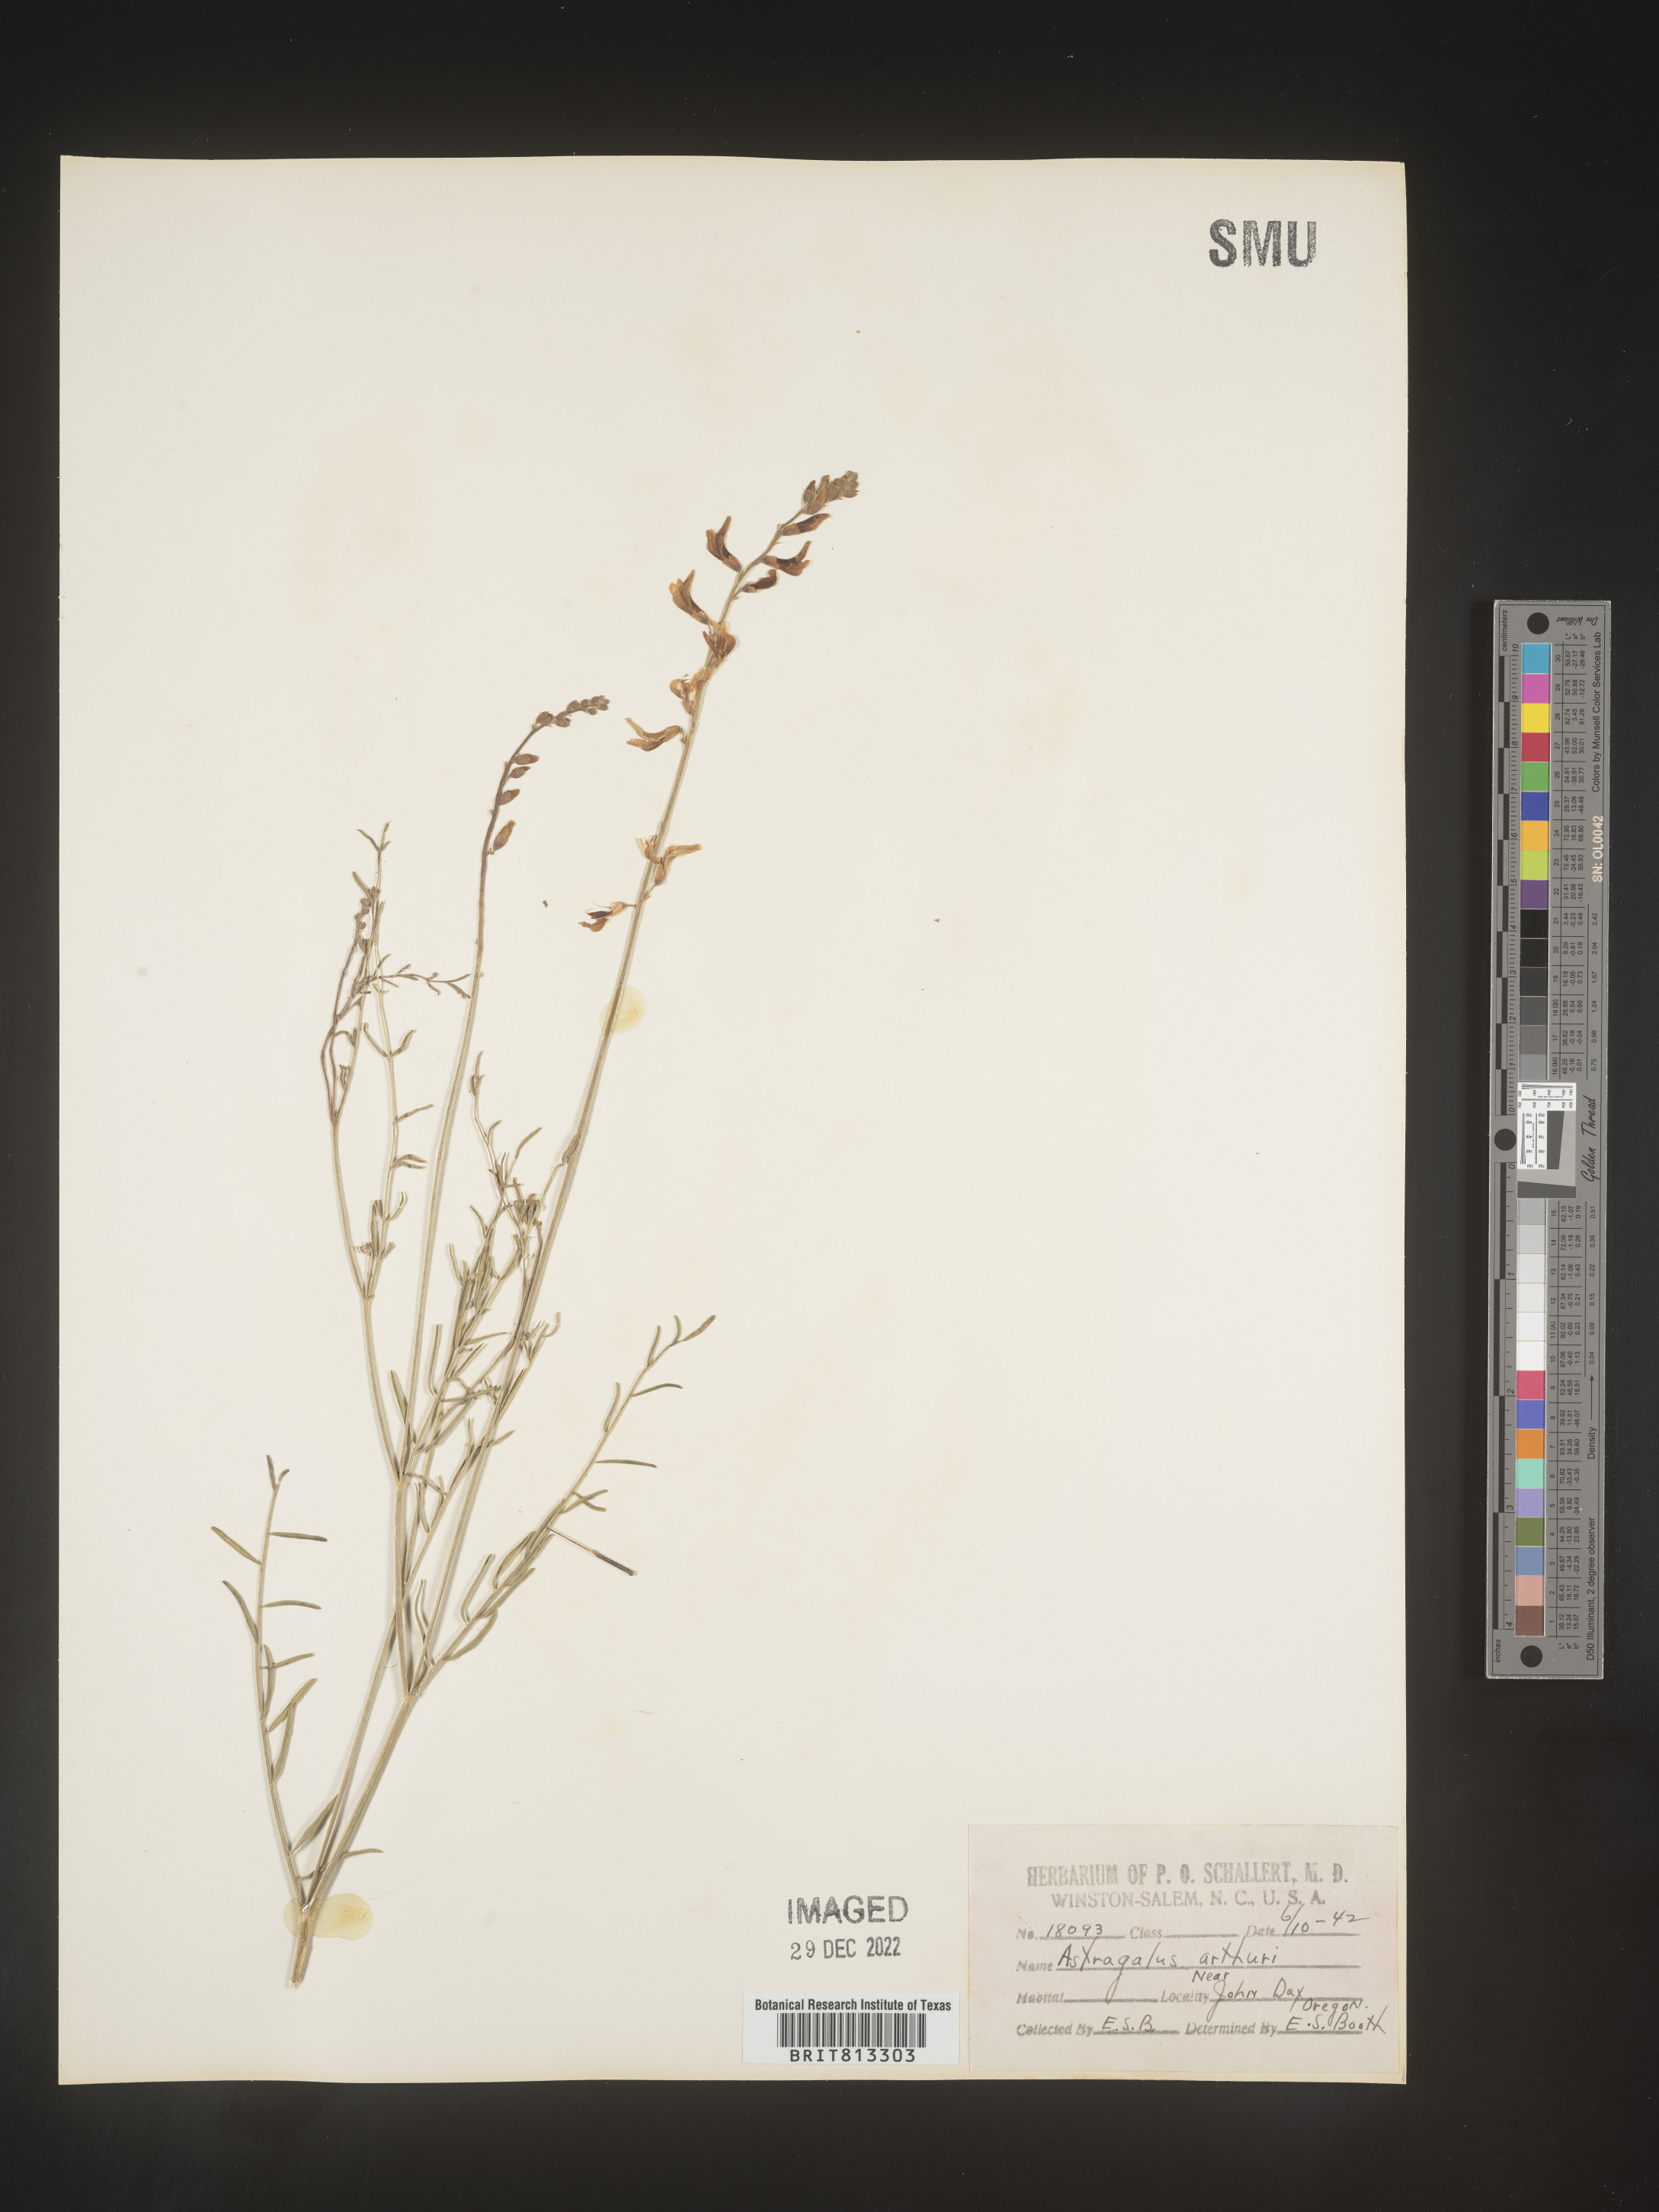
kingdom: Plantae
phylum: Tracheophyta
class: Magnoliopsida
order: Fabales
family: Fabaceae
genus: Astragalus
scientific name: Astragalus
